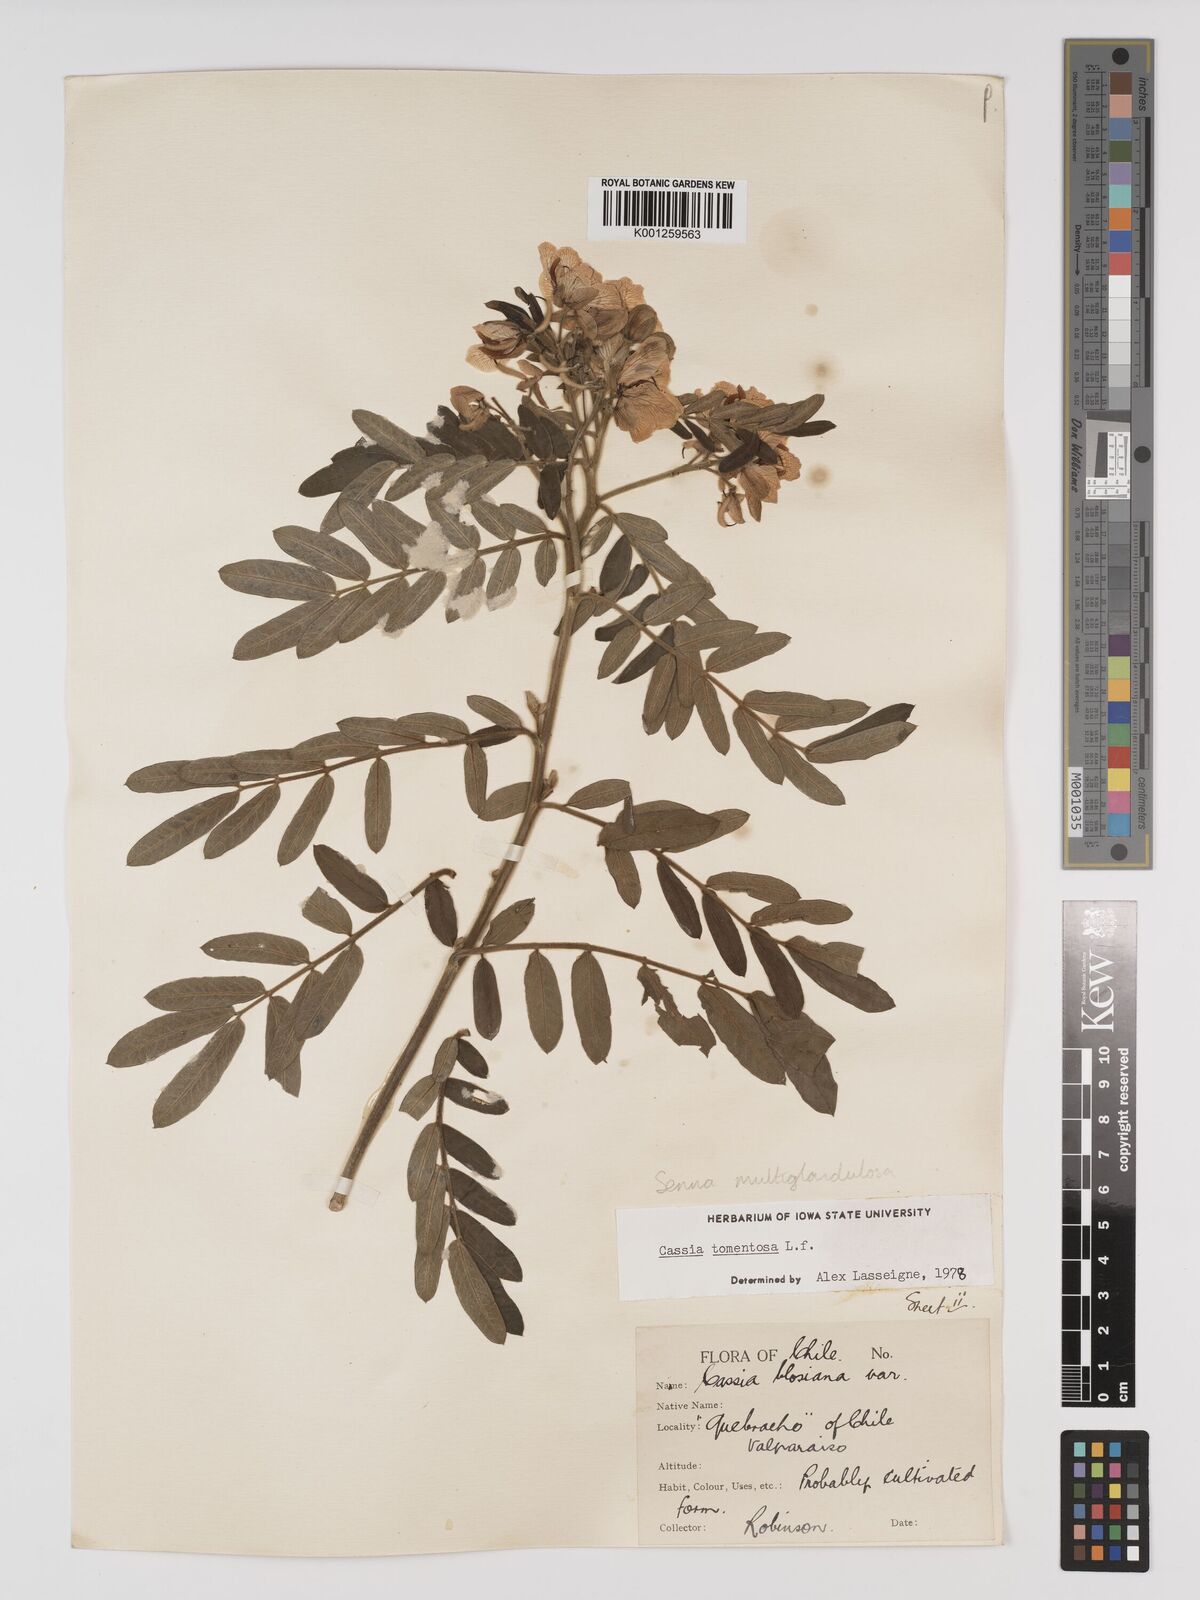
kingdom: Plantae
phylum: Tracheophyta
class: Magnoliopsida
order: Fabales
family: Fabaceae
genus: Senna
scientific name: Senna multiglandulosa
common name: Glandular senna
